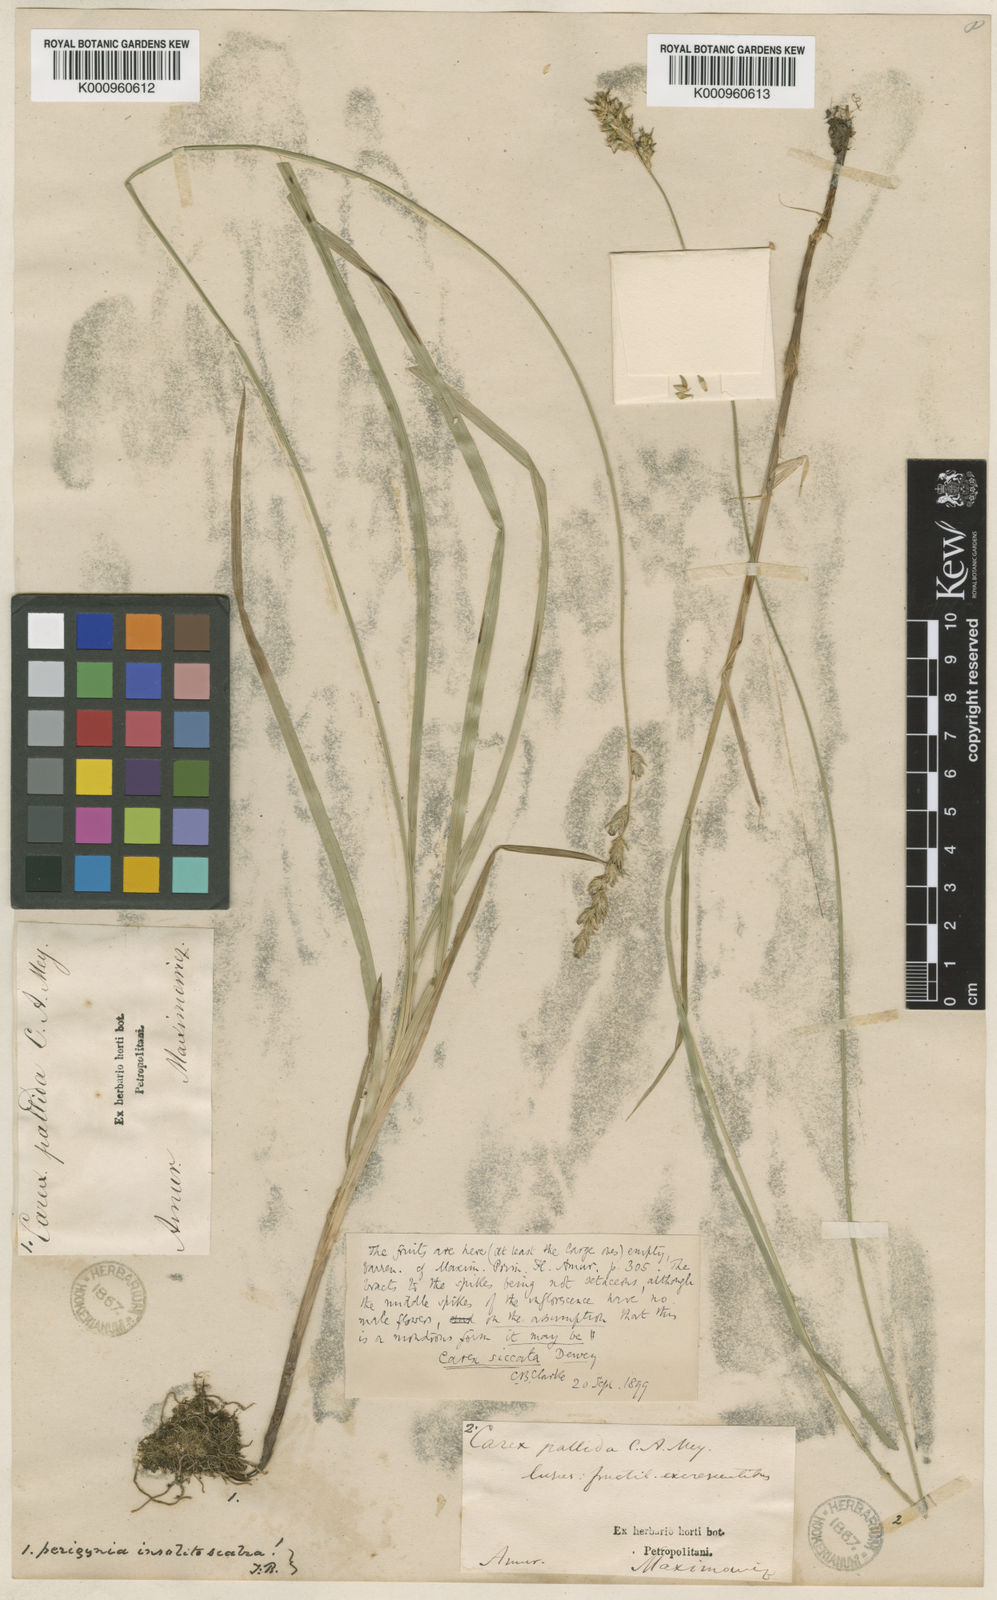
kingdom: Plantae
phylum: Tracheophyta
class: Liliopsida
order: Poales
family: Cyperaceae
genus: Carex
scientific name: Carex accrescens
